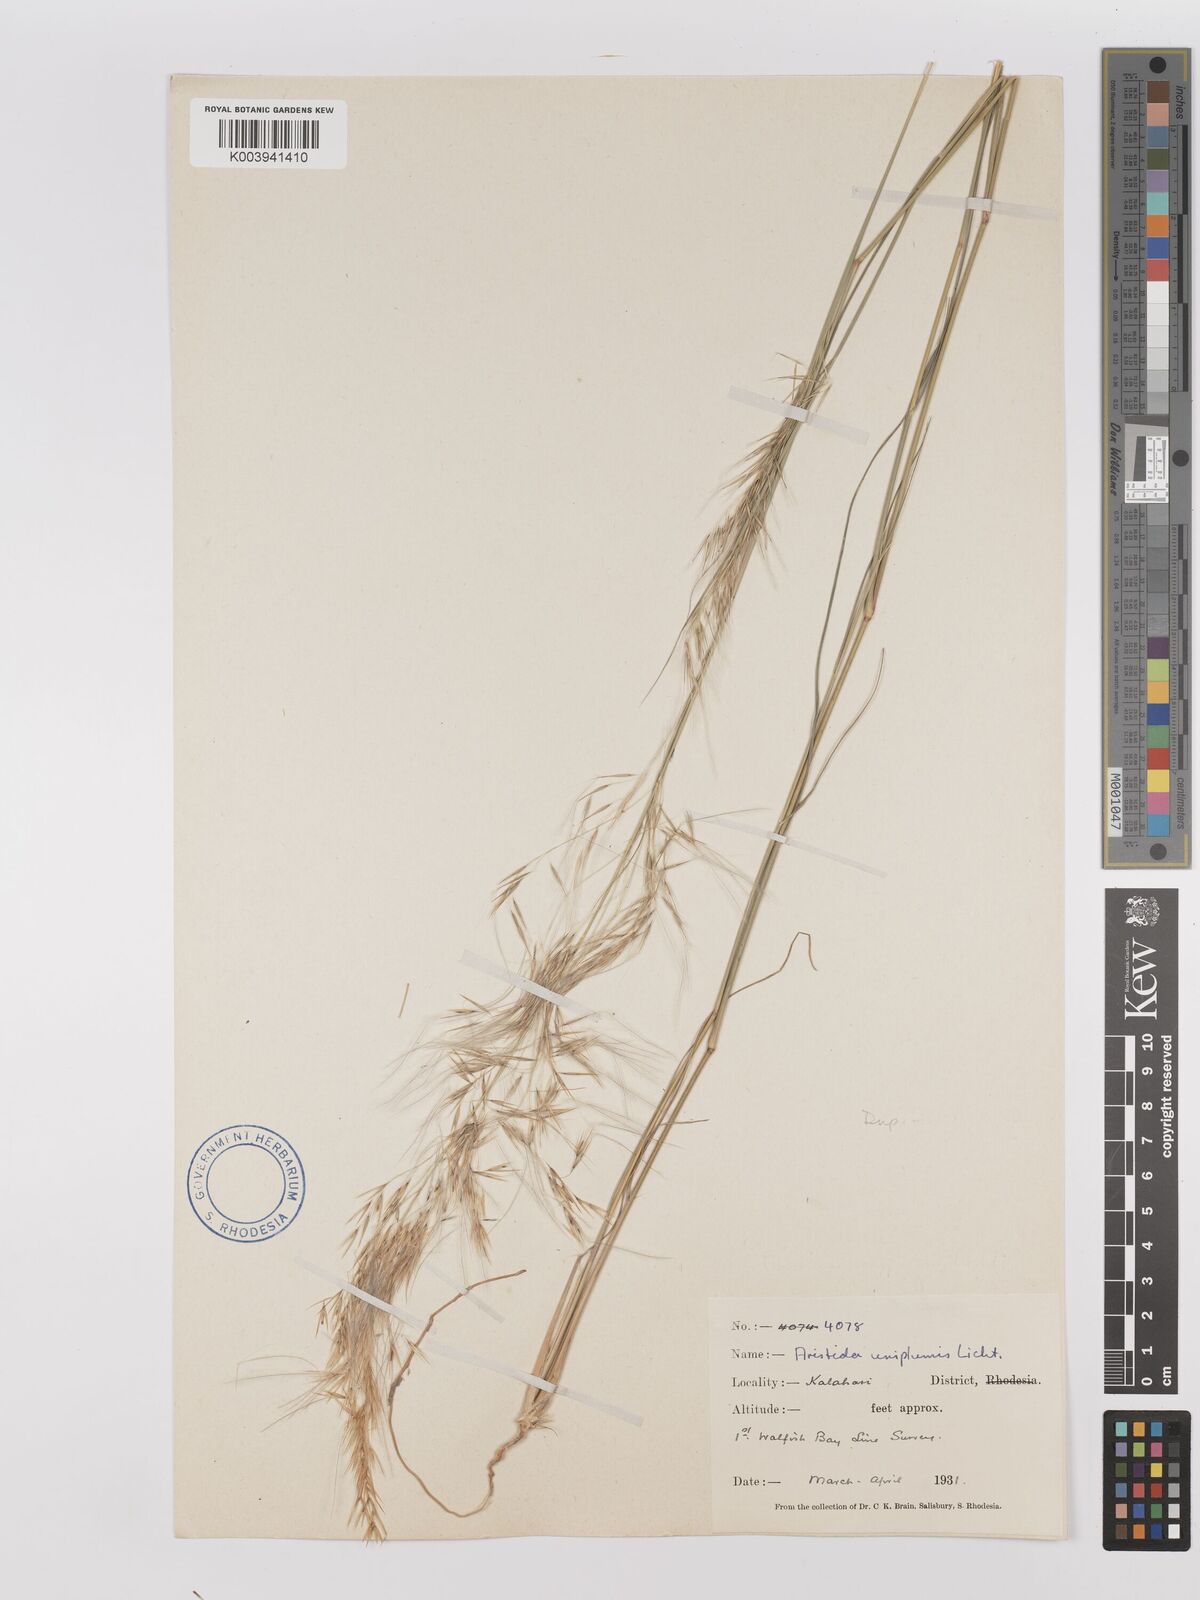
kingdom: Plantae
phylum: Tracheophyta
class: Liliopsida
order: Poales
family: Poaceae
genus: Stipagrostis
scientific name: Stipagrostis uniplumis
